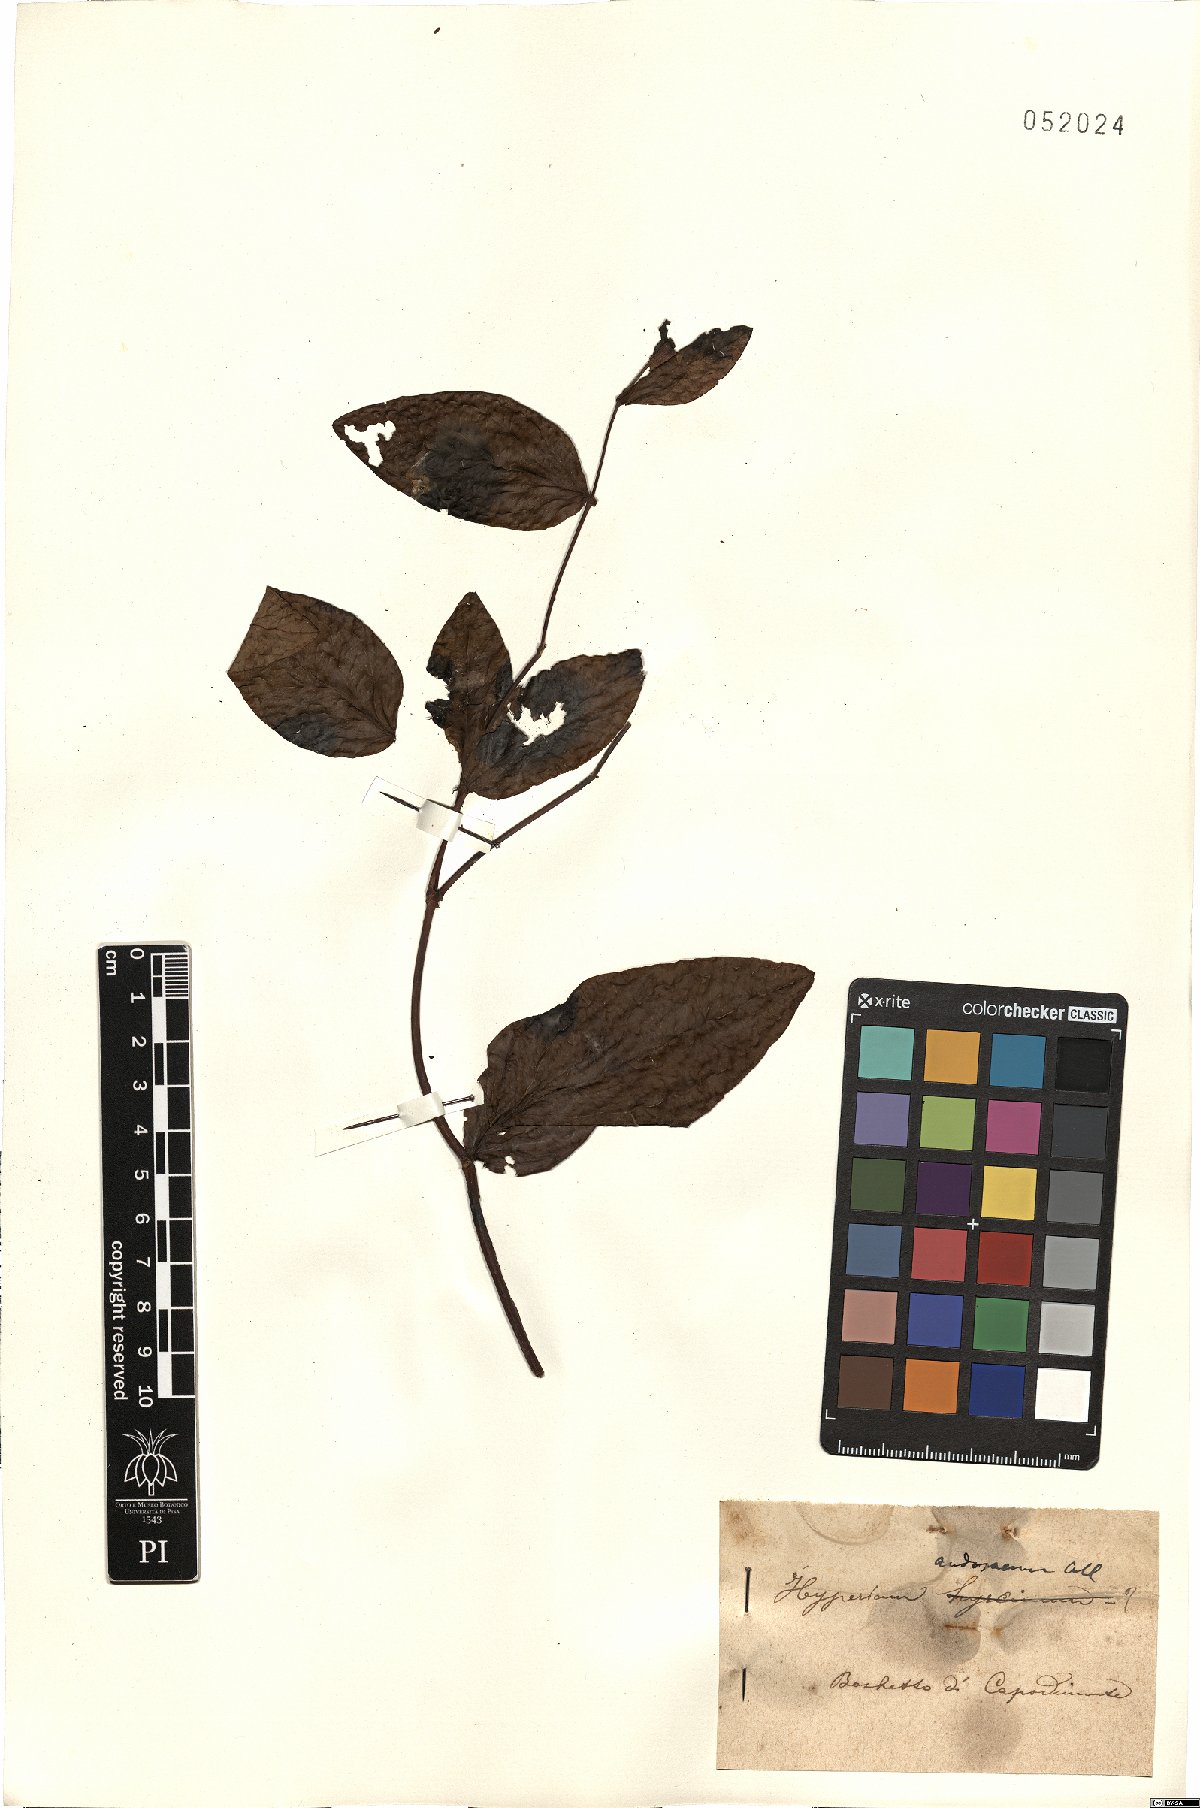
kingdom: Plantae
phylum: Tracheophyta
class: Magnoliopsida
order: Malpighiales
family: Hypericaceae
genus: Hypericum
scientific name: Hypericum androsaemum
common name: Sweet-amber
